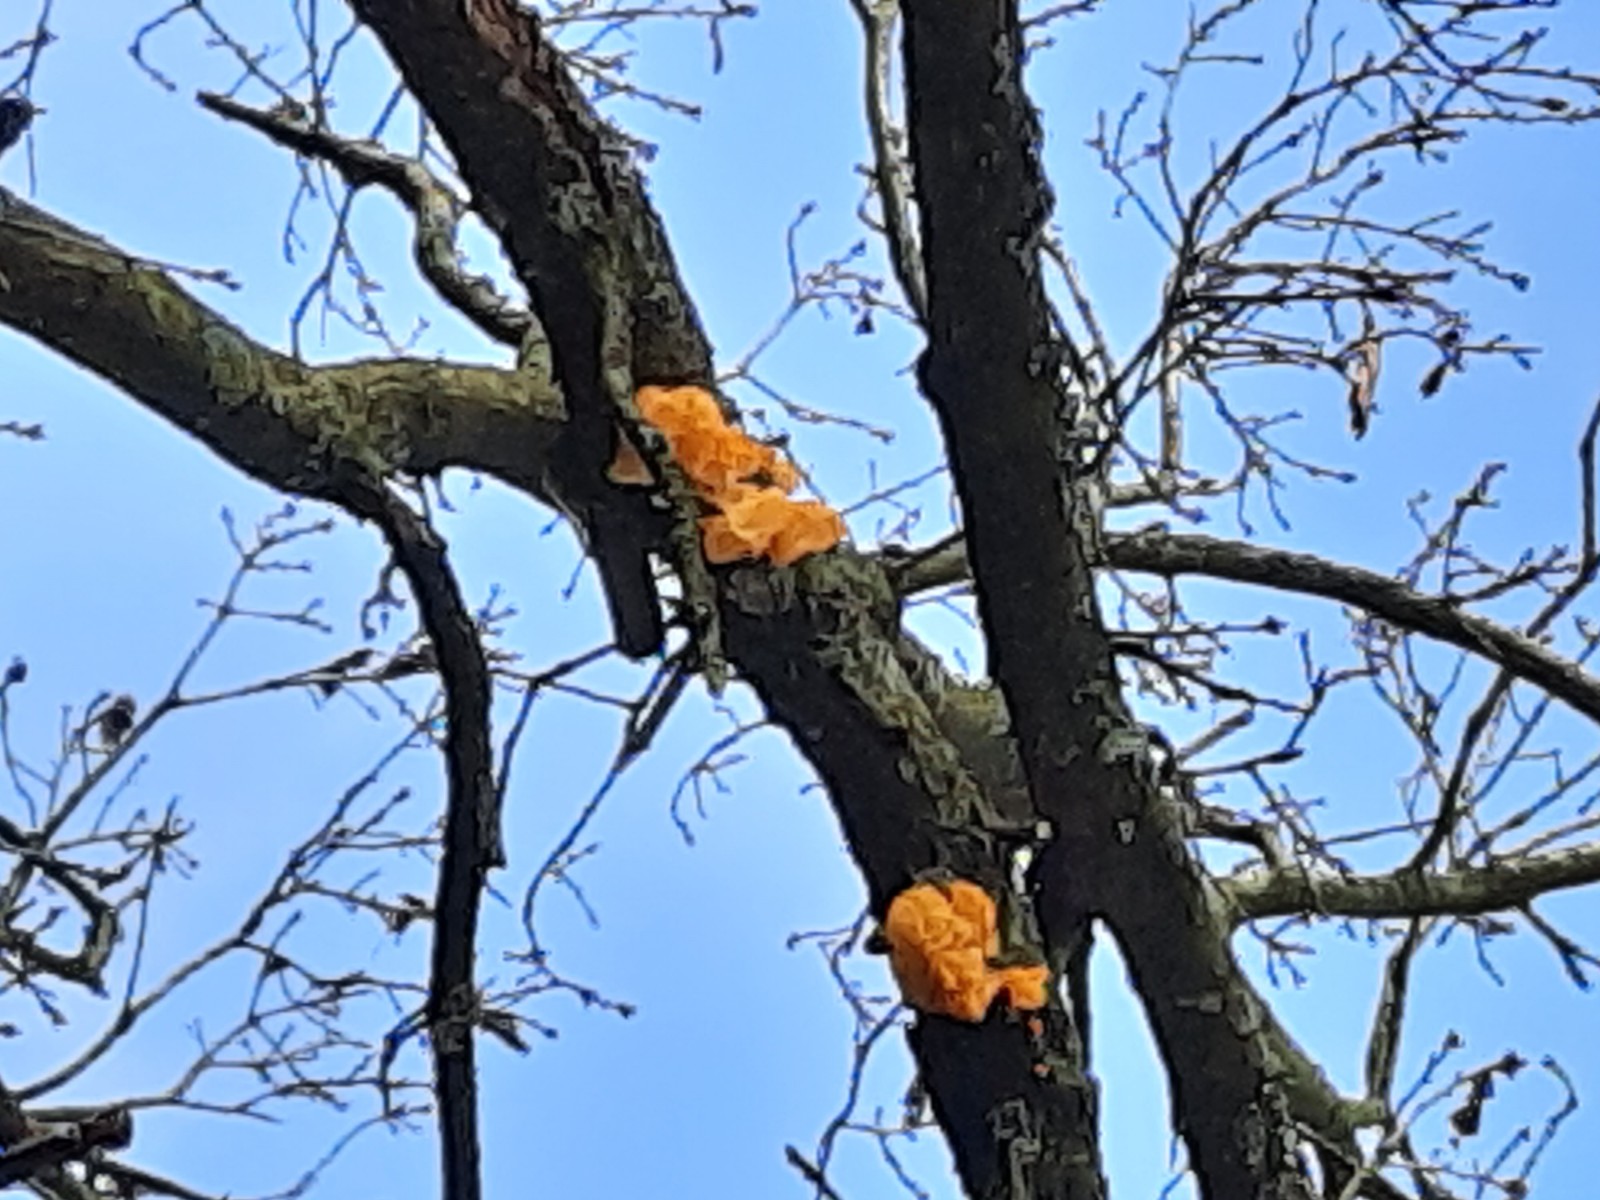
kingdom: Fungi
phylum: Basidiomycota
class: Tremellomycetes
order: Tremellales
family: Tremellaceae
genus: Tremella
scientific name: Tremella mesenterica
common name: gul bævresvamp
